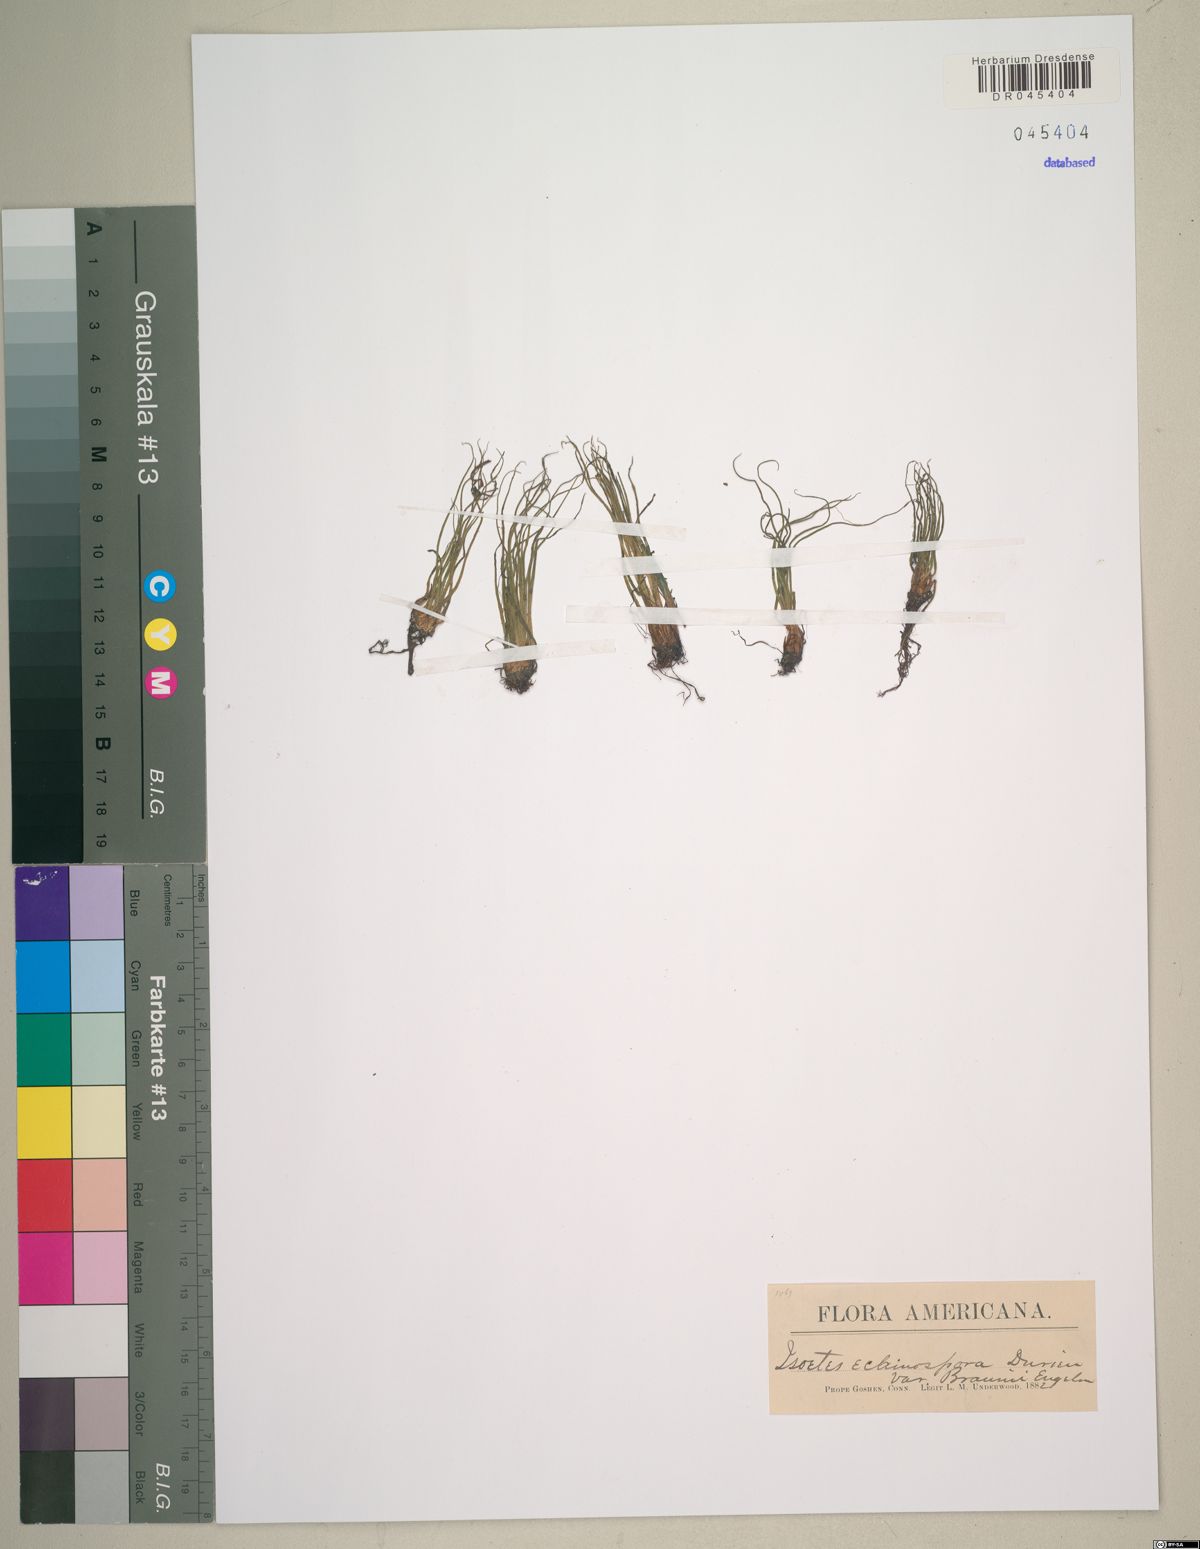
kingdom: Plantae
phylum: Tracheophyta
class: Lycopodiopsida
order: Isoetales
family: Isoetaceae
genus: Isoetes
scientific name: Isoetes echinospora
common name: Spring quillwort
